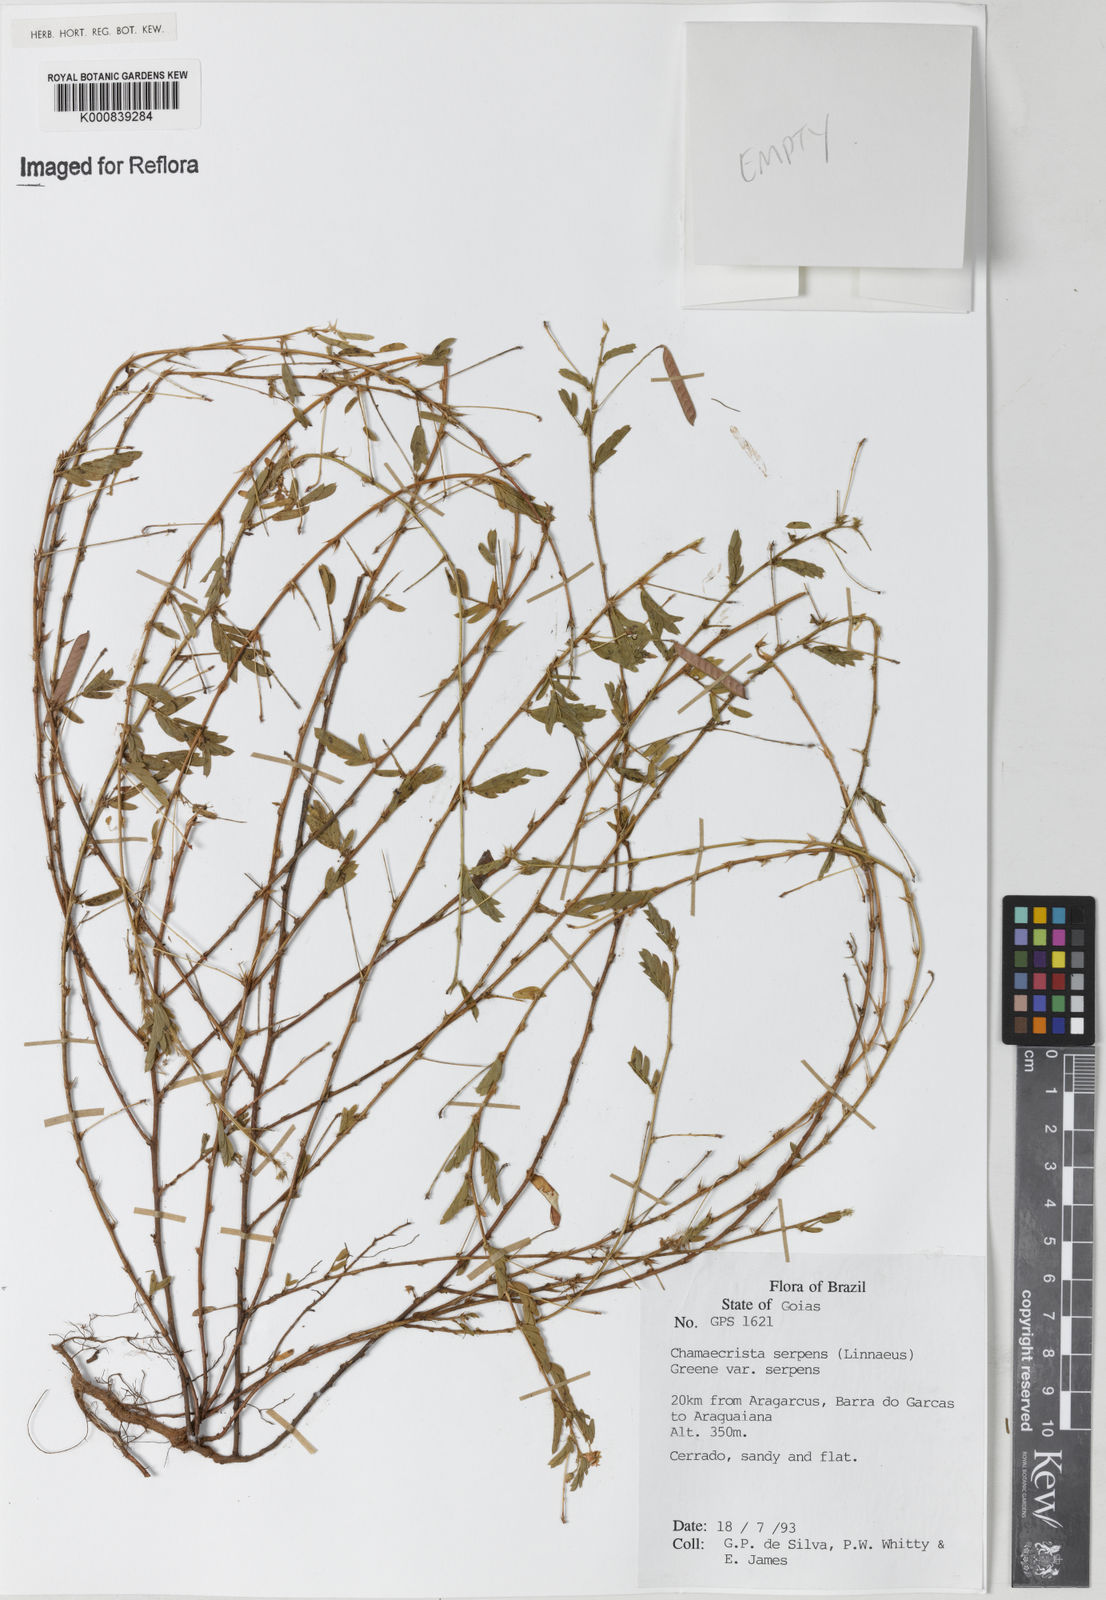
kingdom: Plantae
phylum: Tracheophyta
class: Magnoliopsida
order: Fabales
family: Fabaceae
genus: Chamaecrista
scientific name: Chamaecrista serpens
